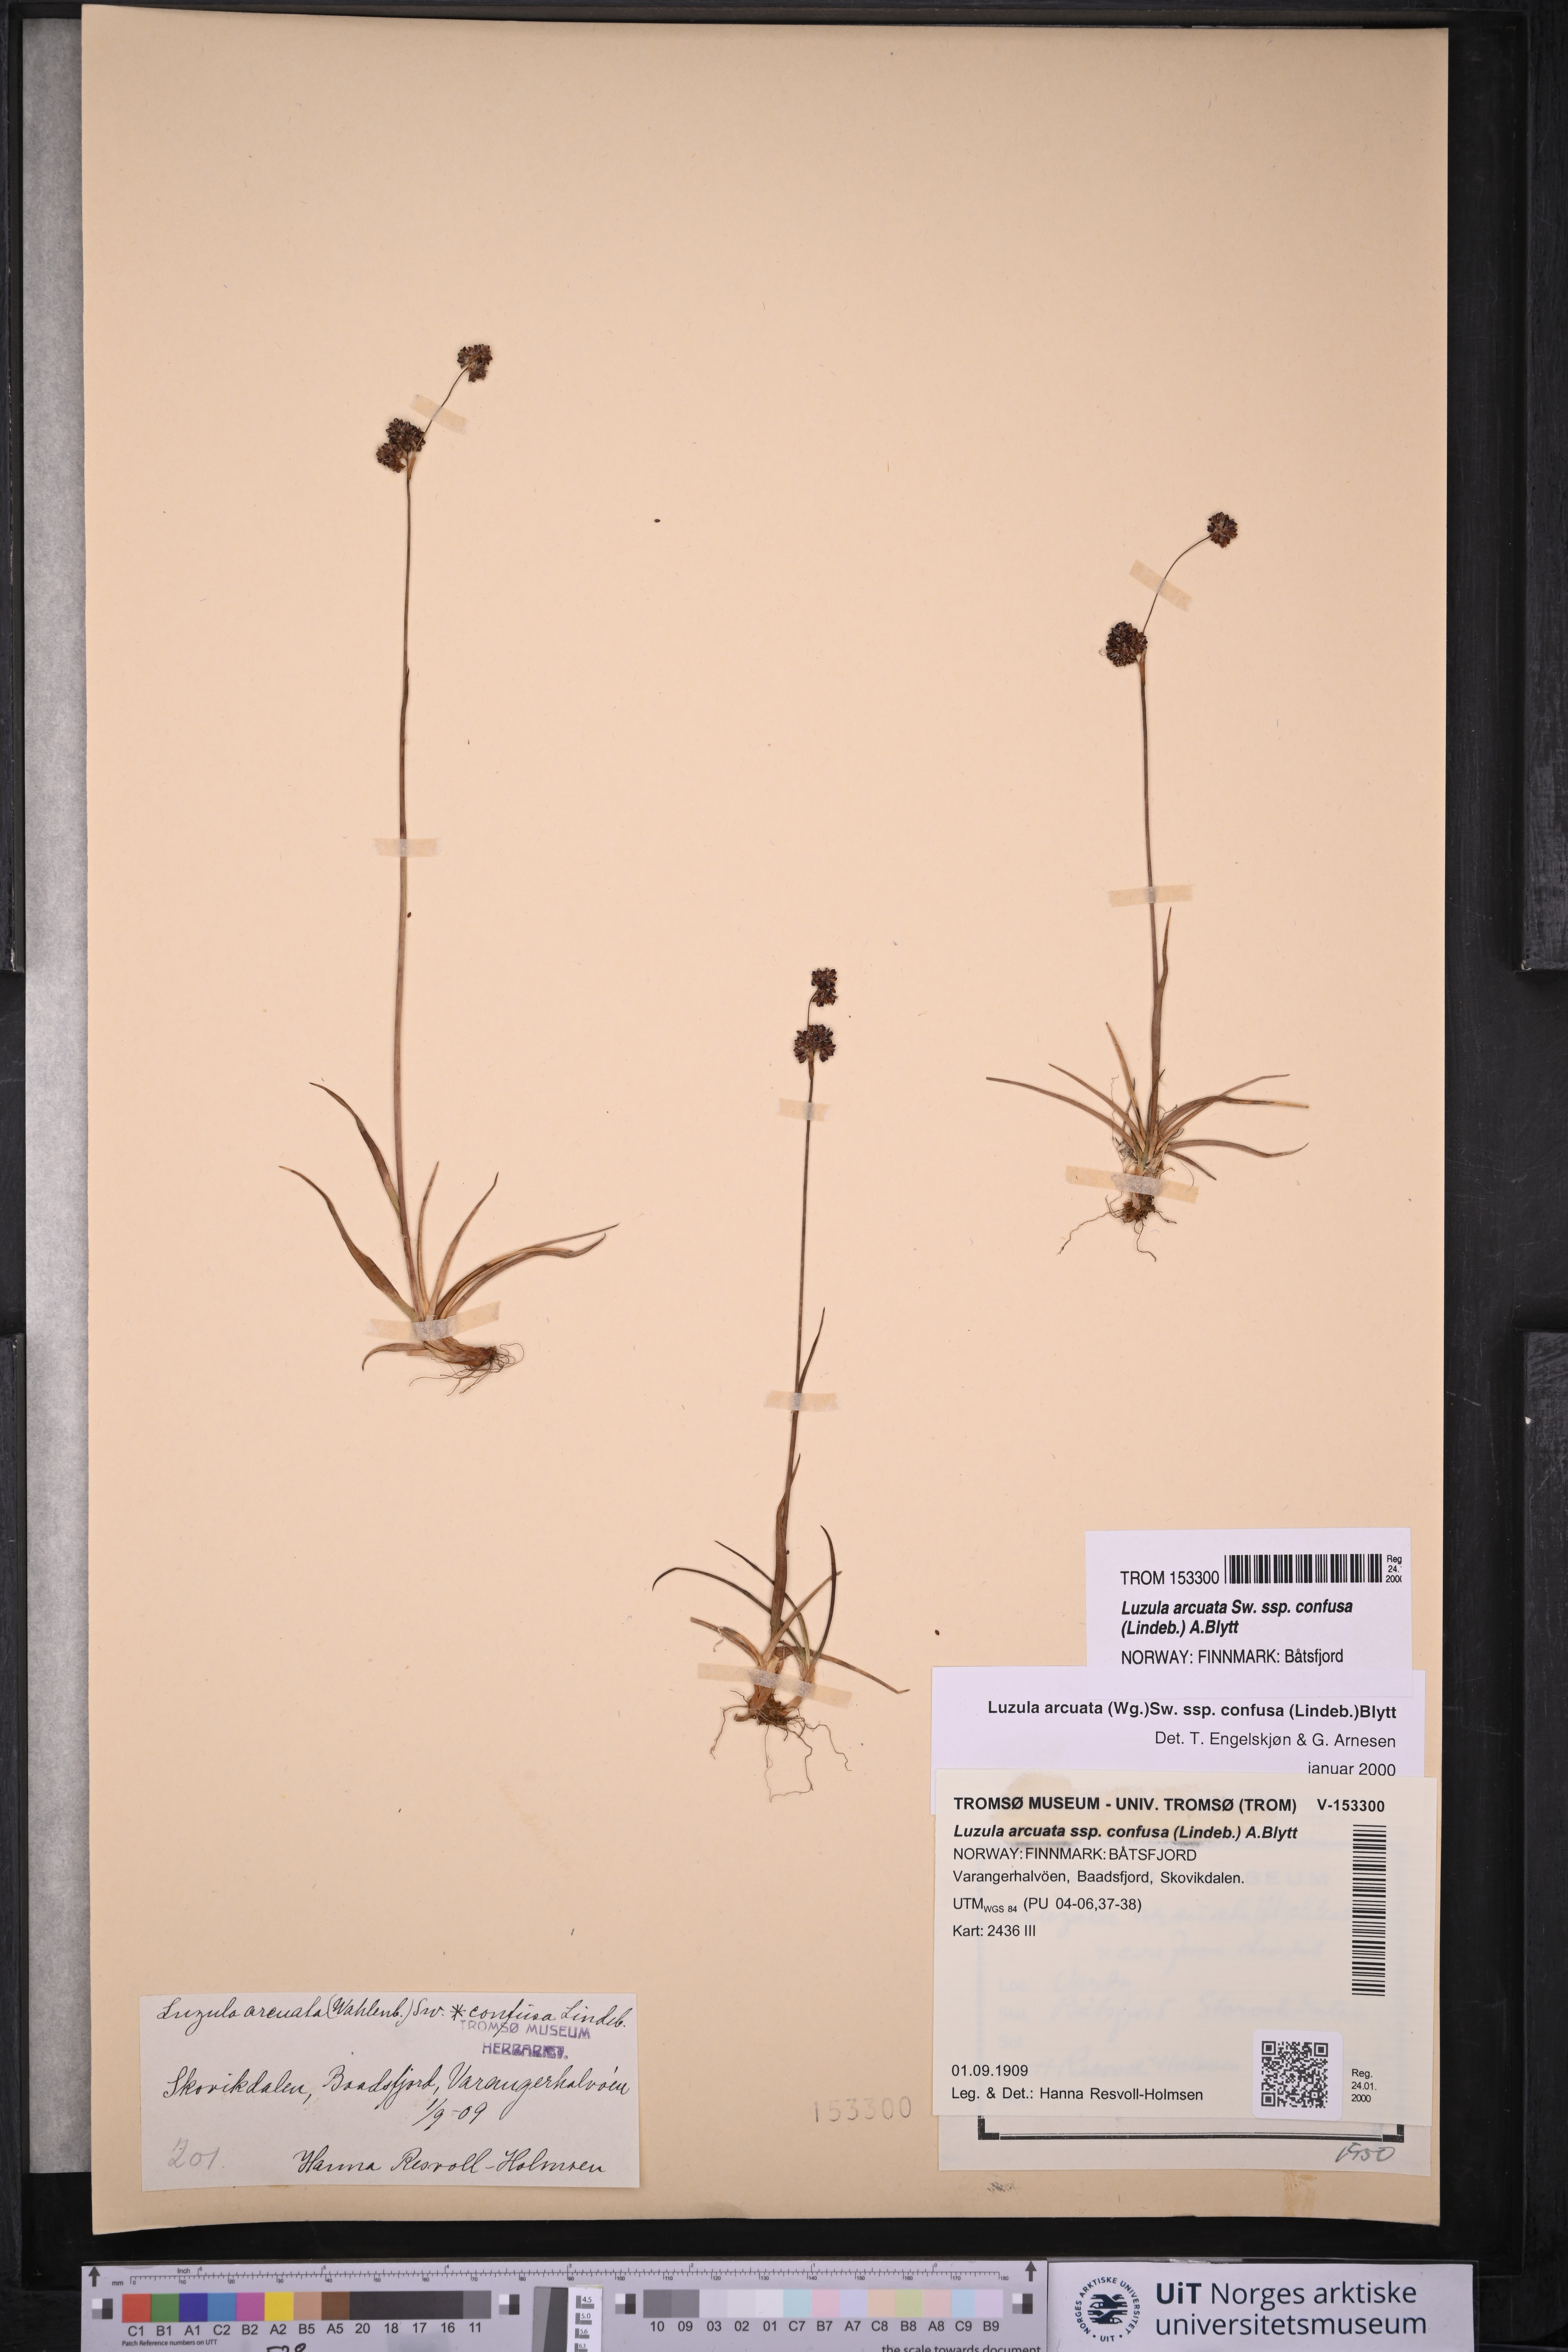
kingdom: Plantae
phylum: Tracheophyta
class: Liliopsida
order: Poales
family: Juncaceae
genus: Luzula
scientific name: Luzula confusa
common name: Northern wood rush
